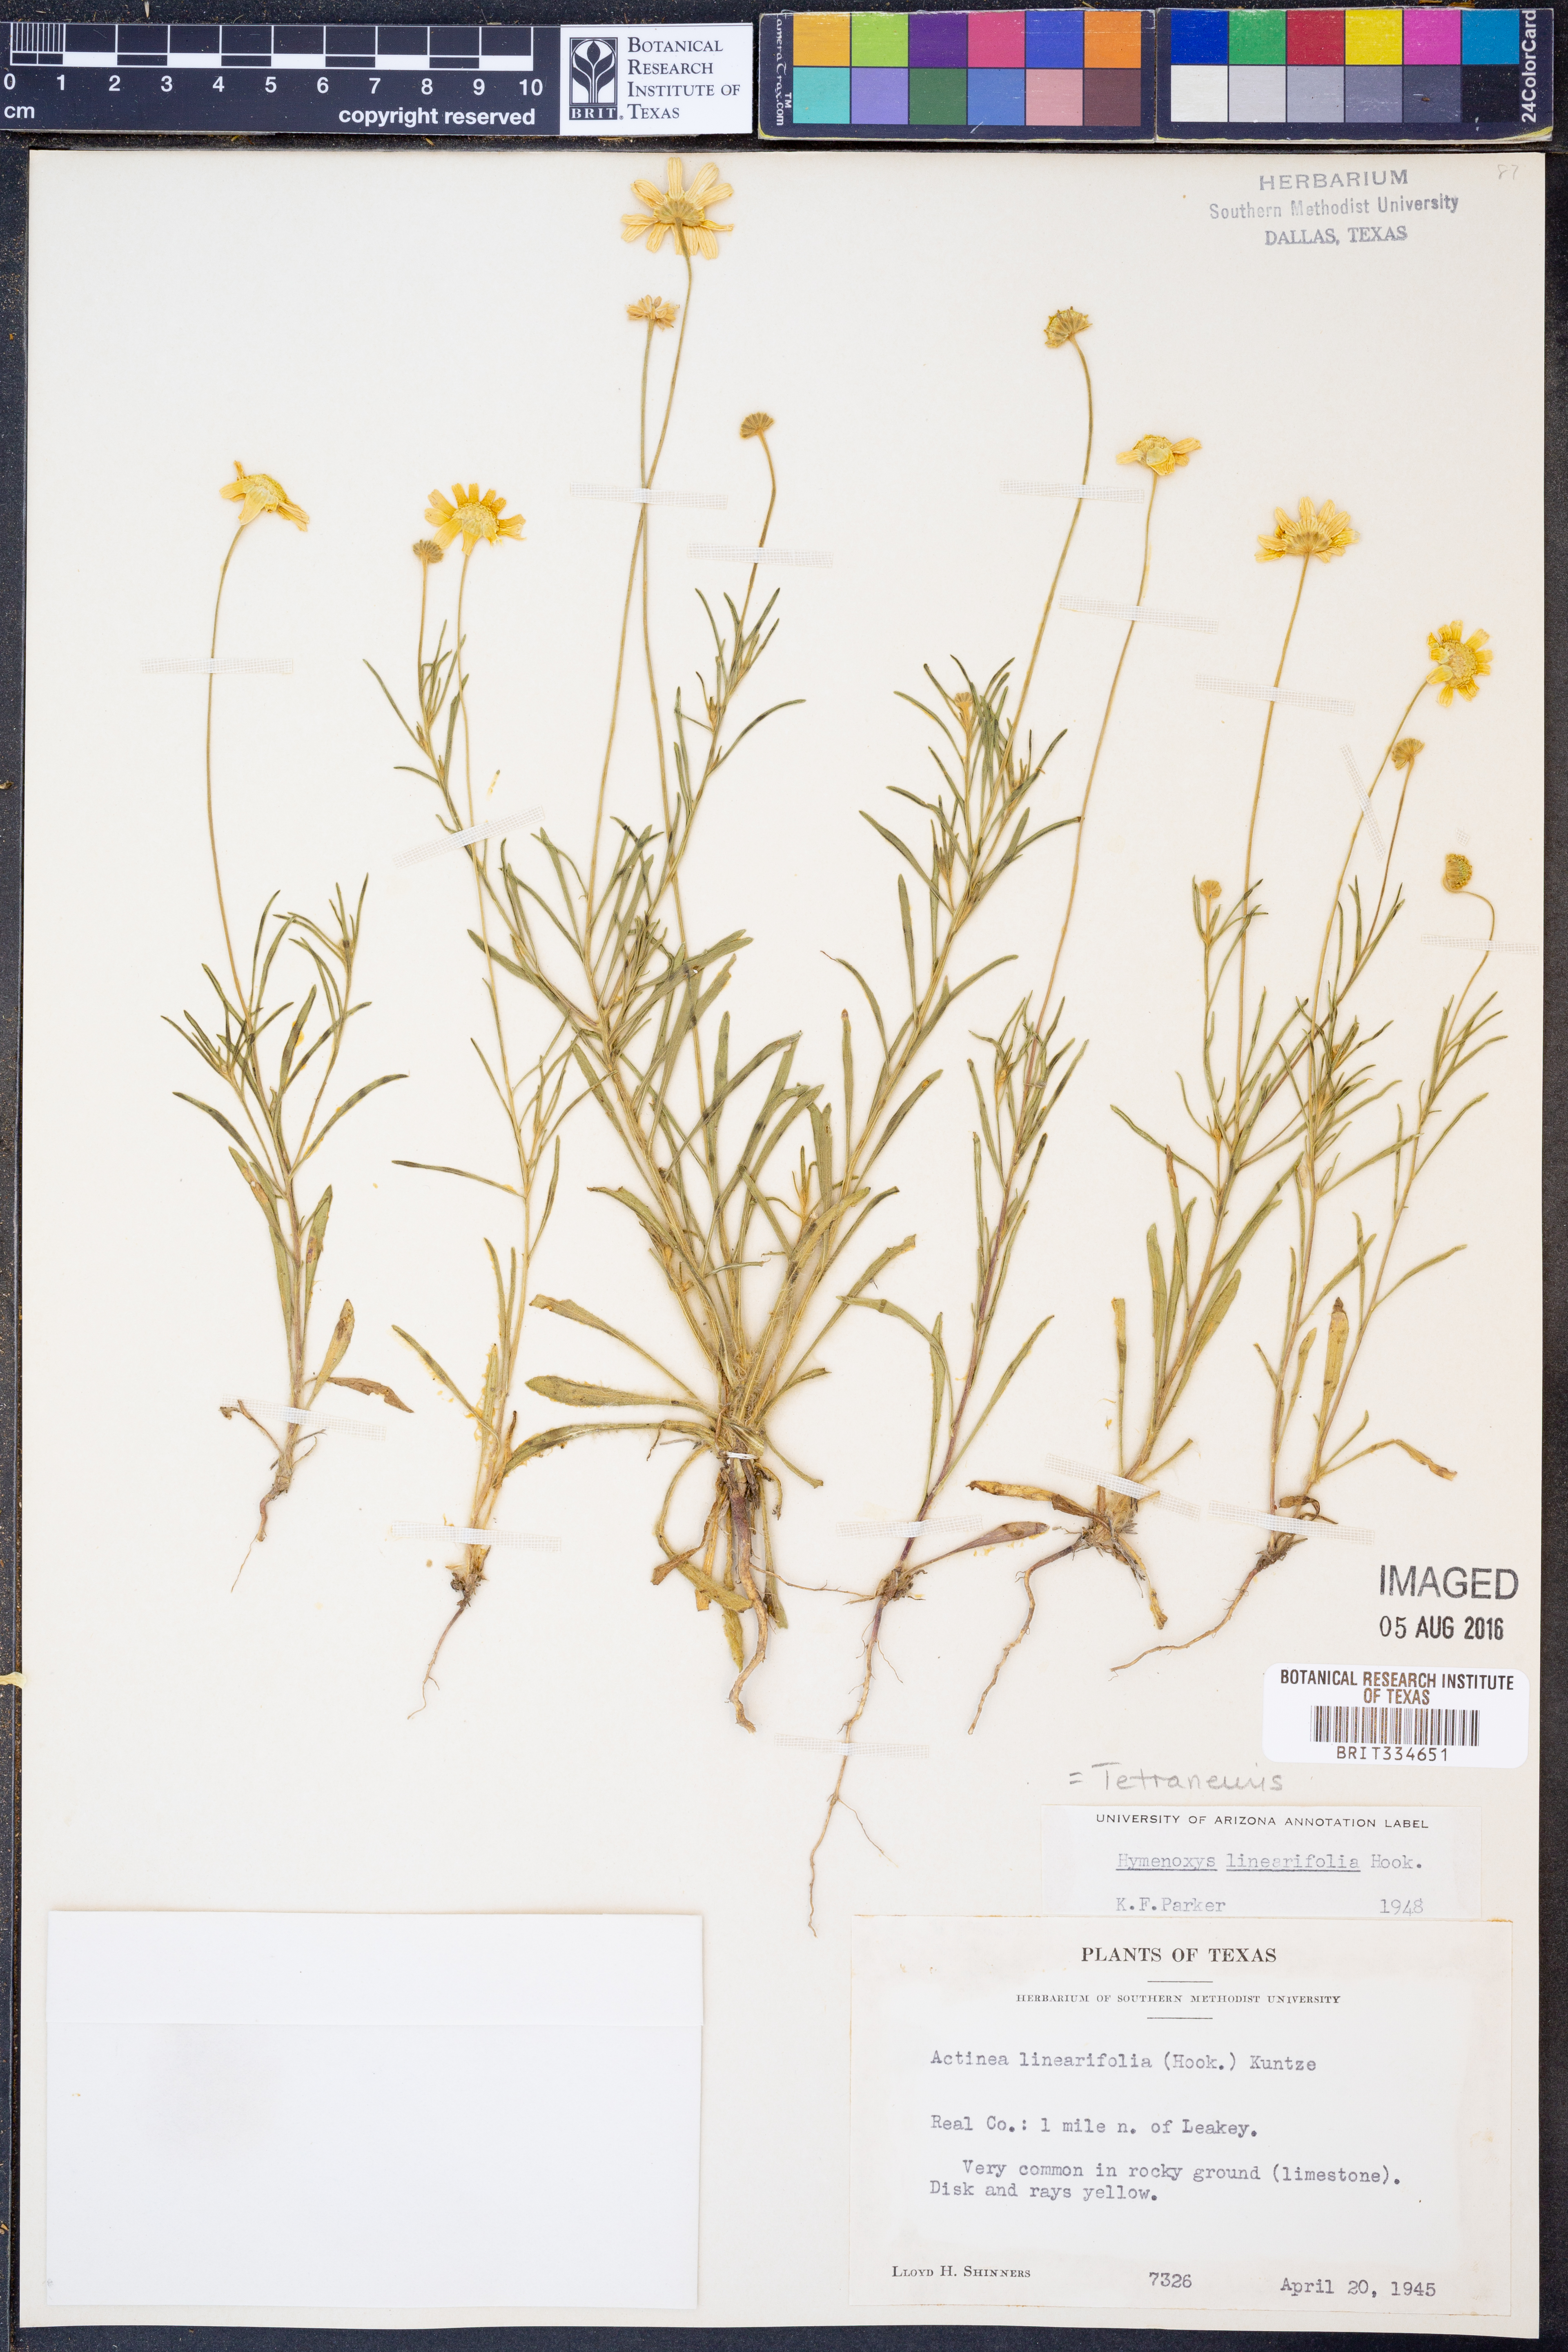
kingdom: Plantae
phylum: Tracheophyta
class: Magnoliopsida
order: Asterales
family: Asteraceae
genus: Tetraneuris
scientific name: Tetraneuris linearifolia
